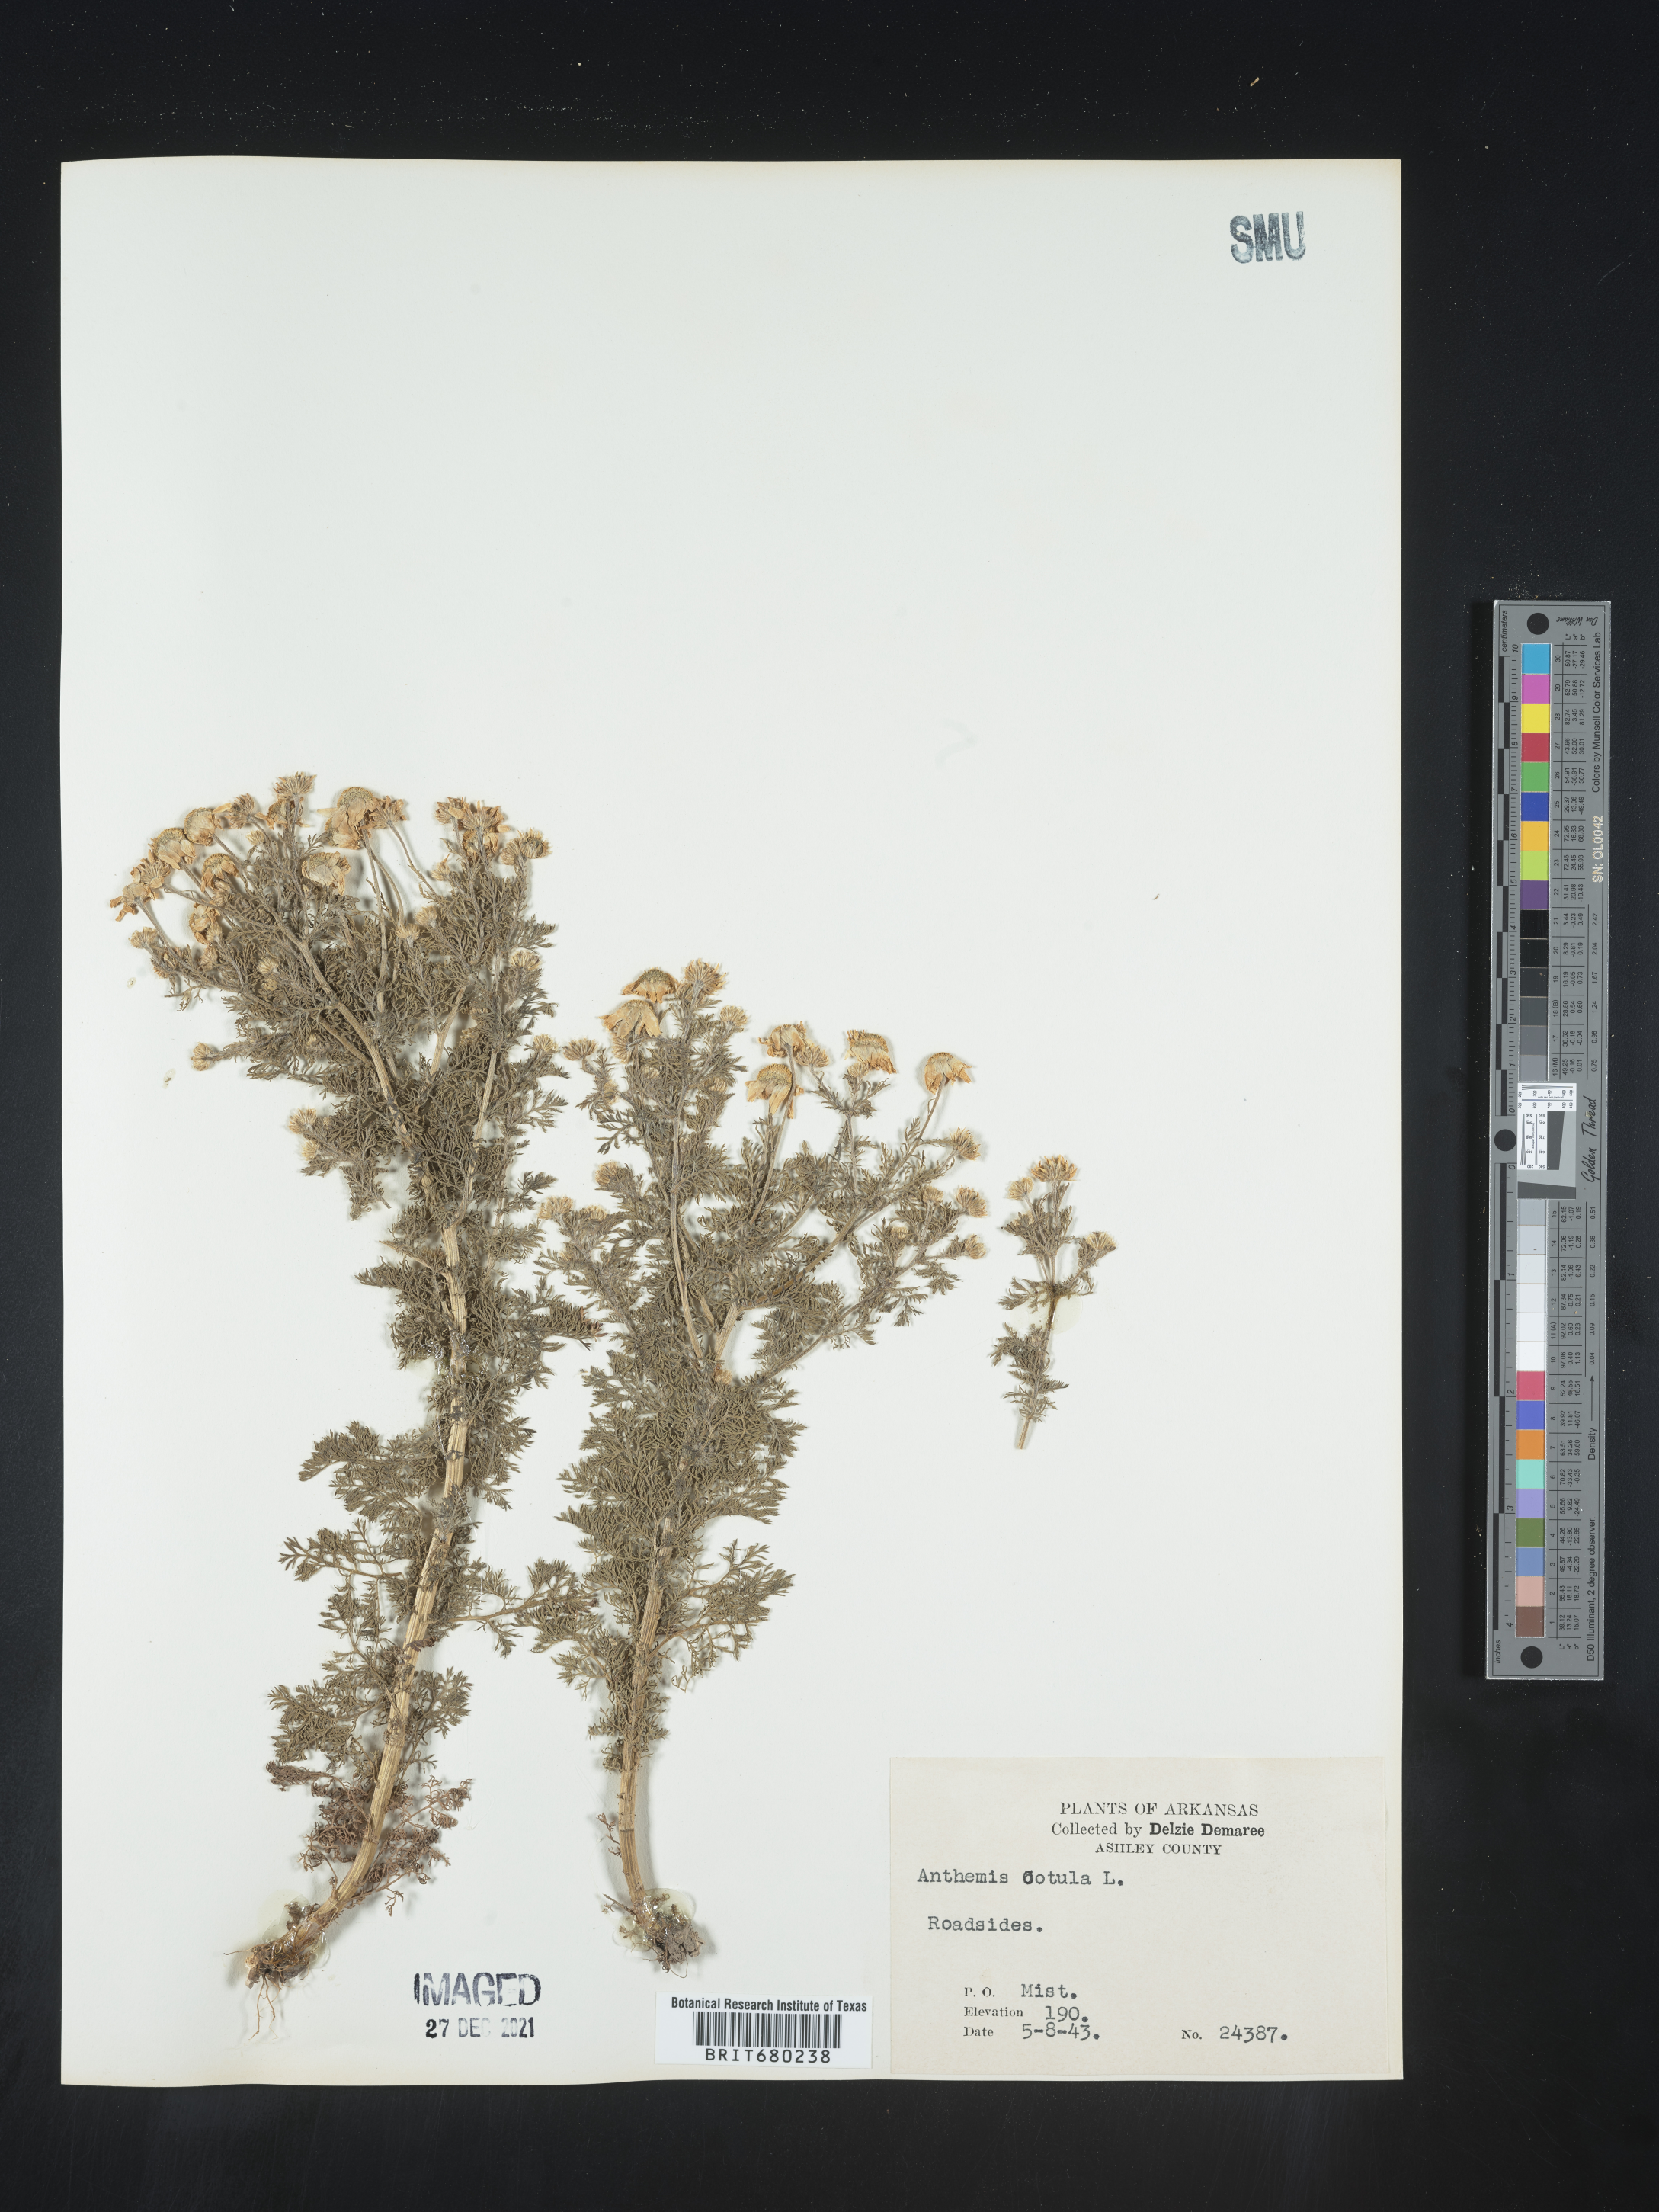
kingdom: Plantae
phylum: Tracheophyta
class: Magnoliopsida
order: Asterales
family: Asteraceae
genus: Anthemis
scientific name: Anthemis cotula
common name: Stinking chamomile
